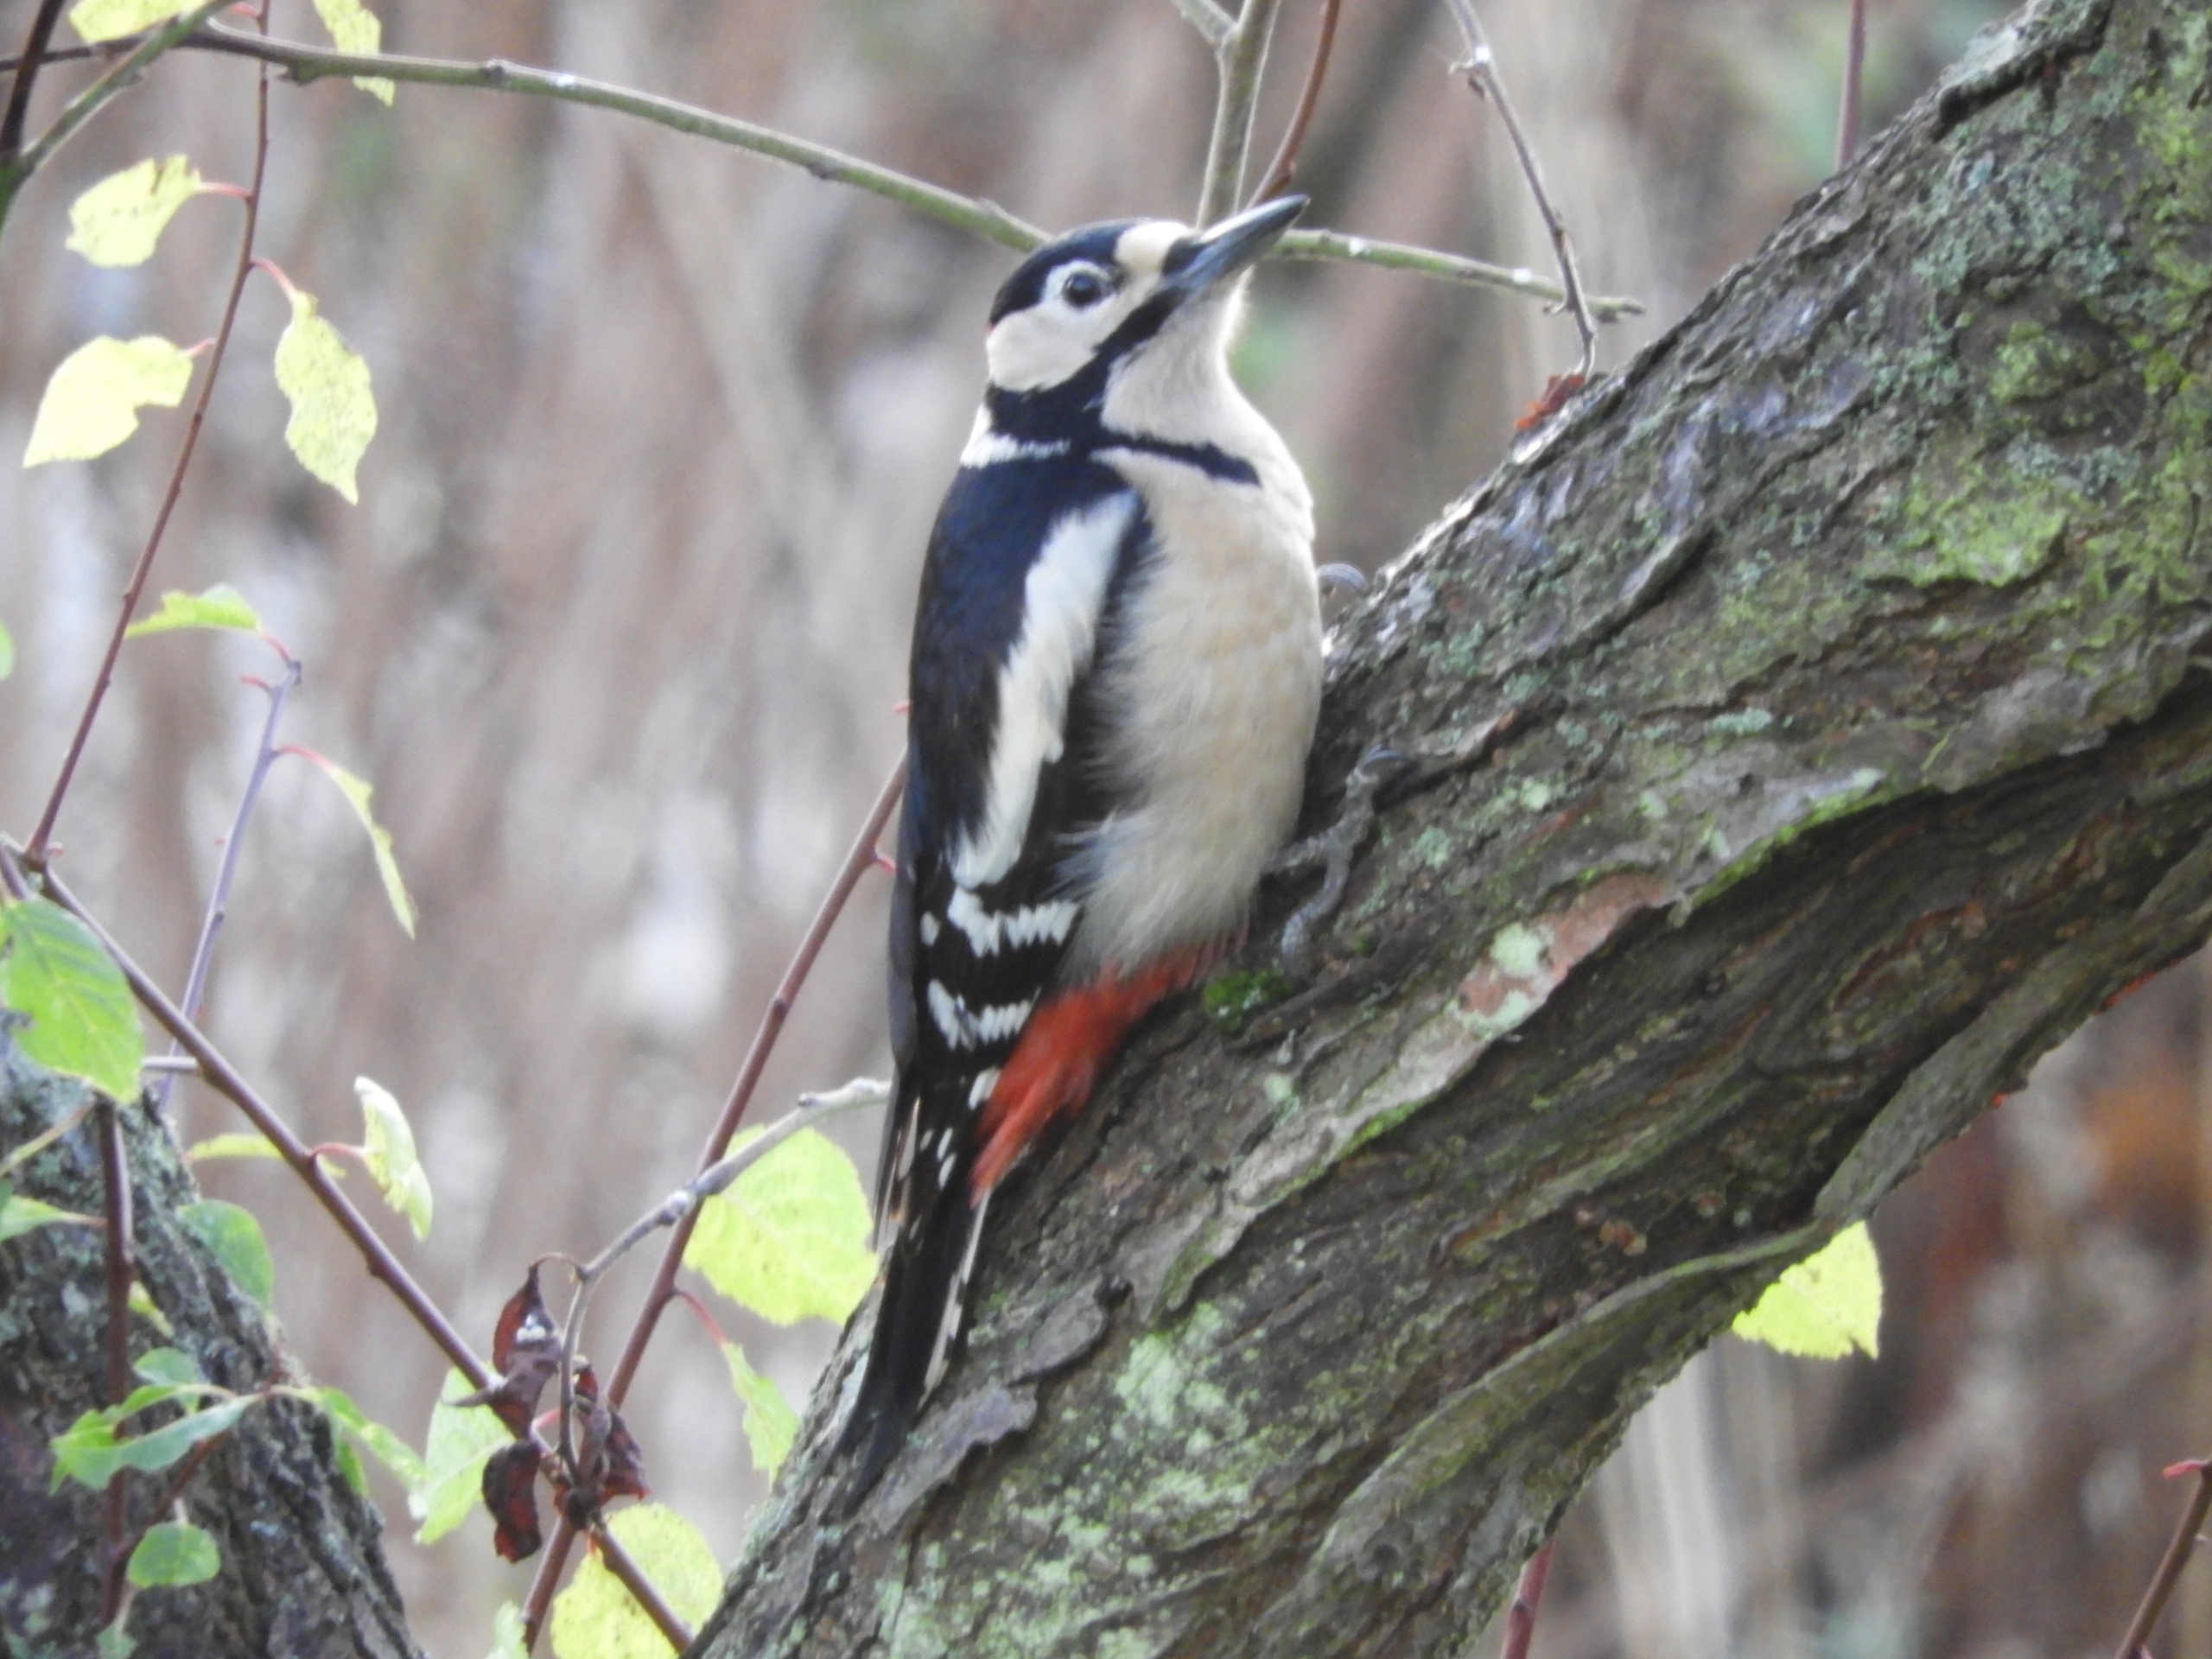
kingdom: Animalia
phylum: Chordata
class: Aves
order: Piciformes
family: Picidae
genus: Dendrocopos
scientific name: Dendrocopos major
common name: Stor flagspætte
